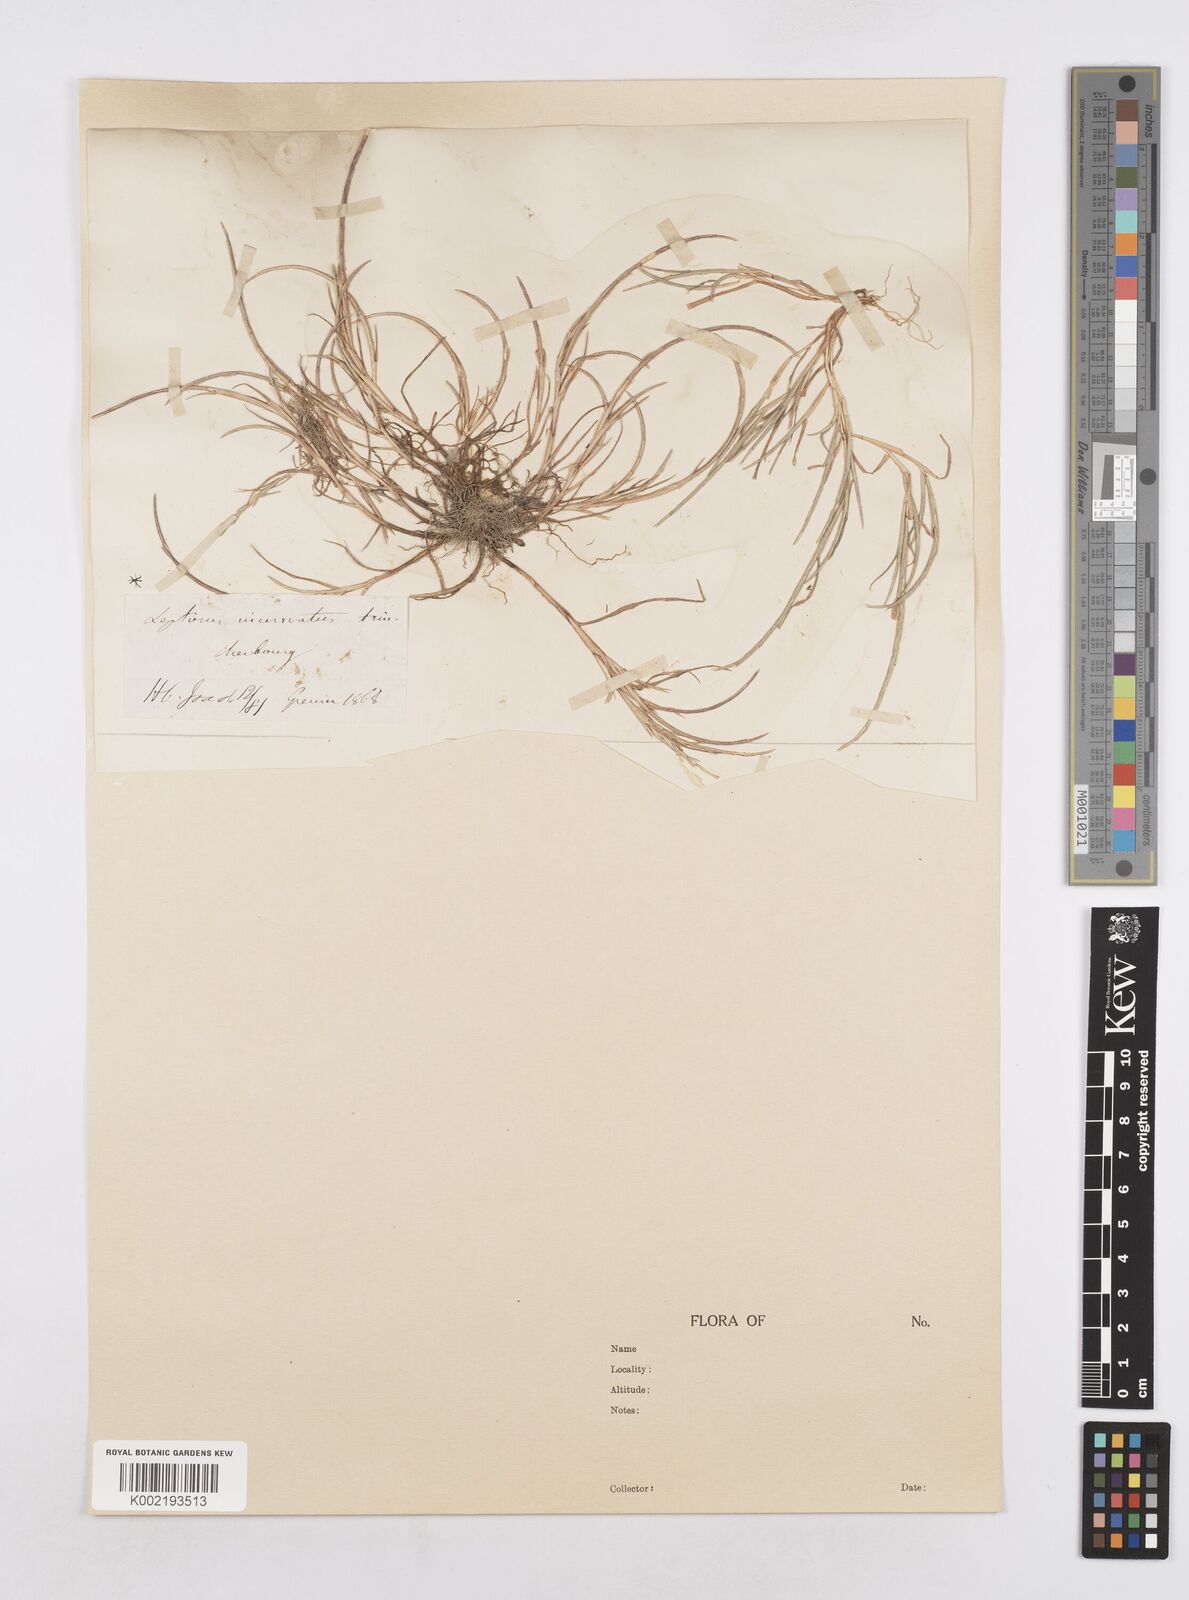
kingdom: Plantae
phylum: Tracheophyta
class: Liliopsida
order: Poales
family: Poaceae
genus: Parapholis
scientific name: Parapholis incurva
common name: Curved sicklegrass
